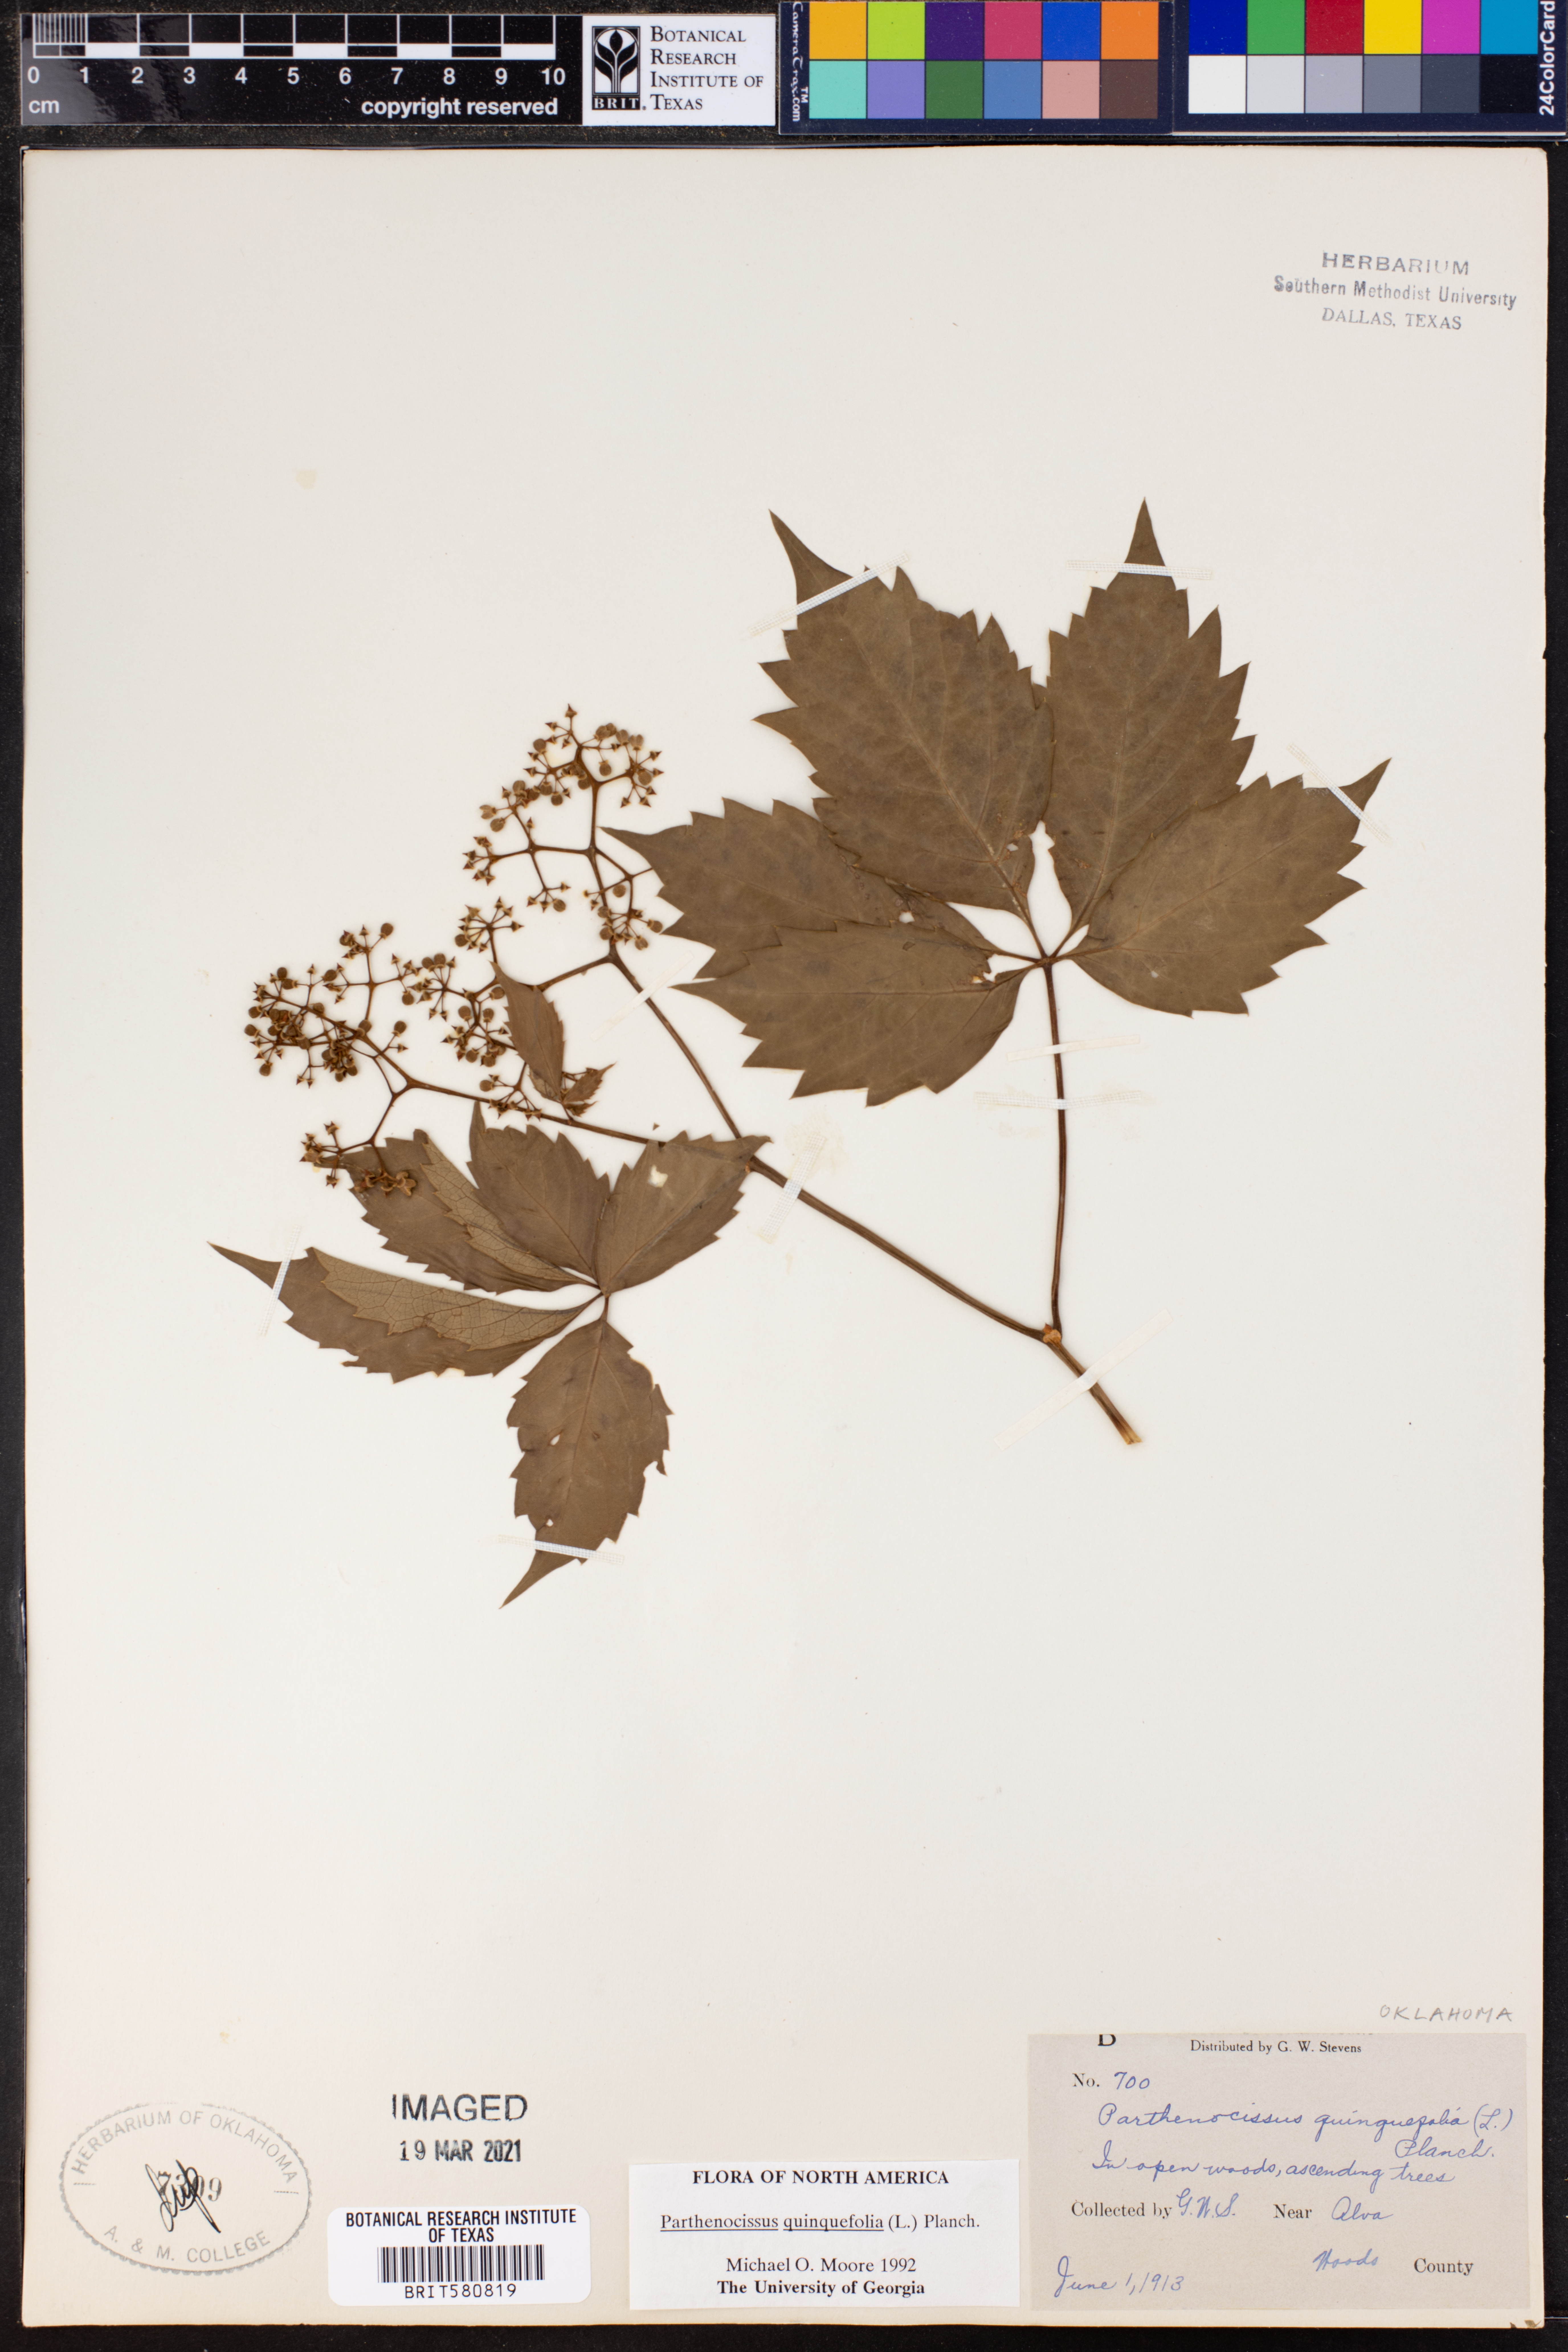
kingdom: Plantae
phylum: Tracheophyta
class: Magnoliopsida
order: Vitales
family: Vitaceae
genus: Parthenocissus
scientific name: Parthenocissus quinquefolia
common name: Virginia-creeper
